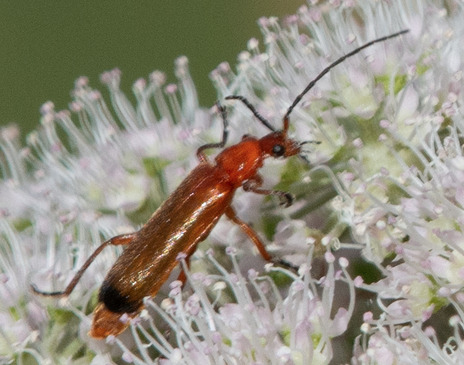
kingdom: Animalia
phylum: Arthropoda
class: Insecta
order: Coleoptera
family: Cantharidae
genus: Rhagonycha
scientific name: Rhagonycha fulva
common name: Præstebille
